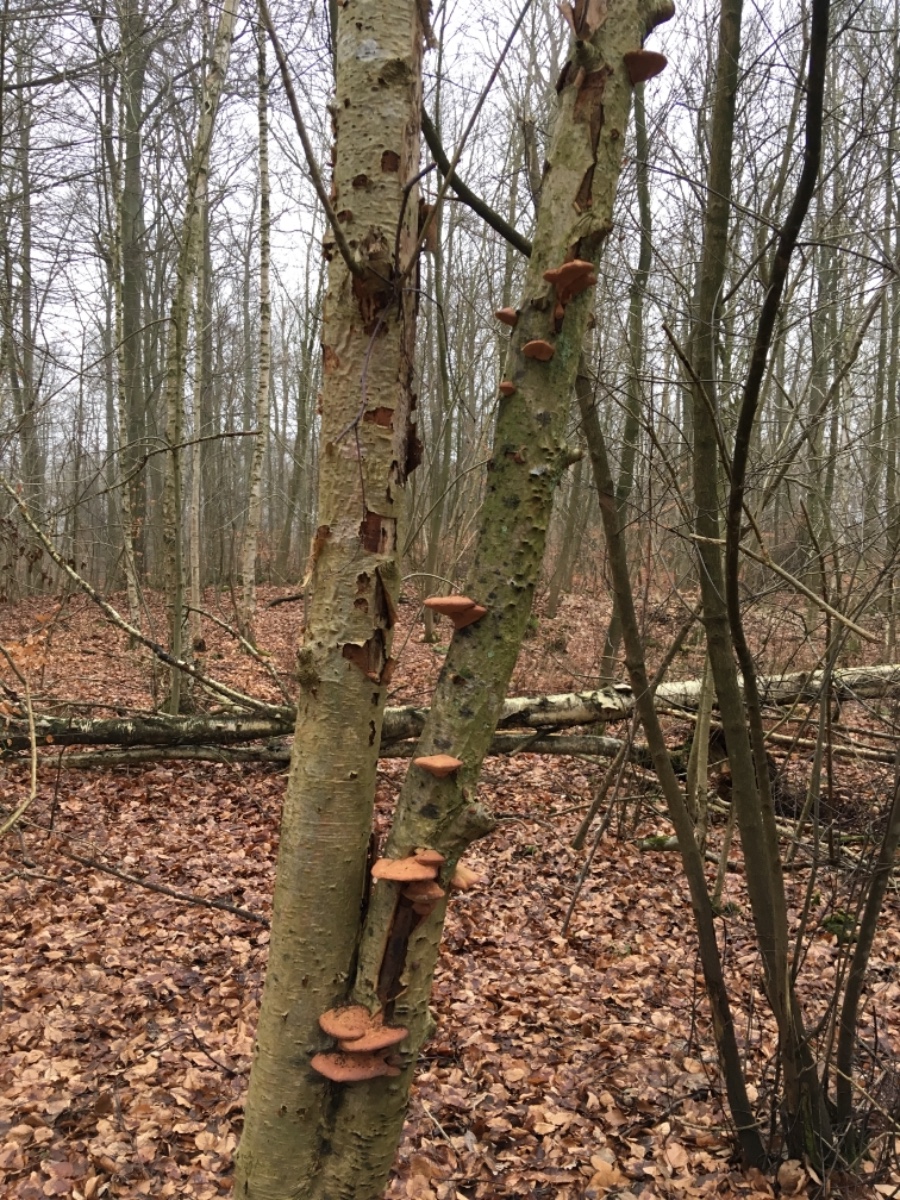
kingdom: Fungi
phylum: Basidiomycota
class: Agaricomycetes
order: Polyporales
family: Phanerochaetaceae
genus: Hapalopilus
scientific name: Hapalopilus rutilans
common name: rødlig okkerporesvamp
